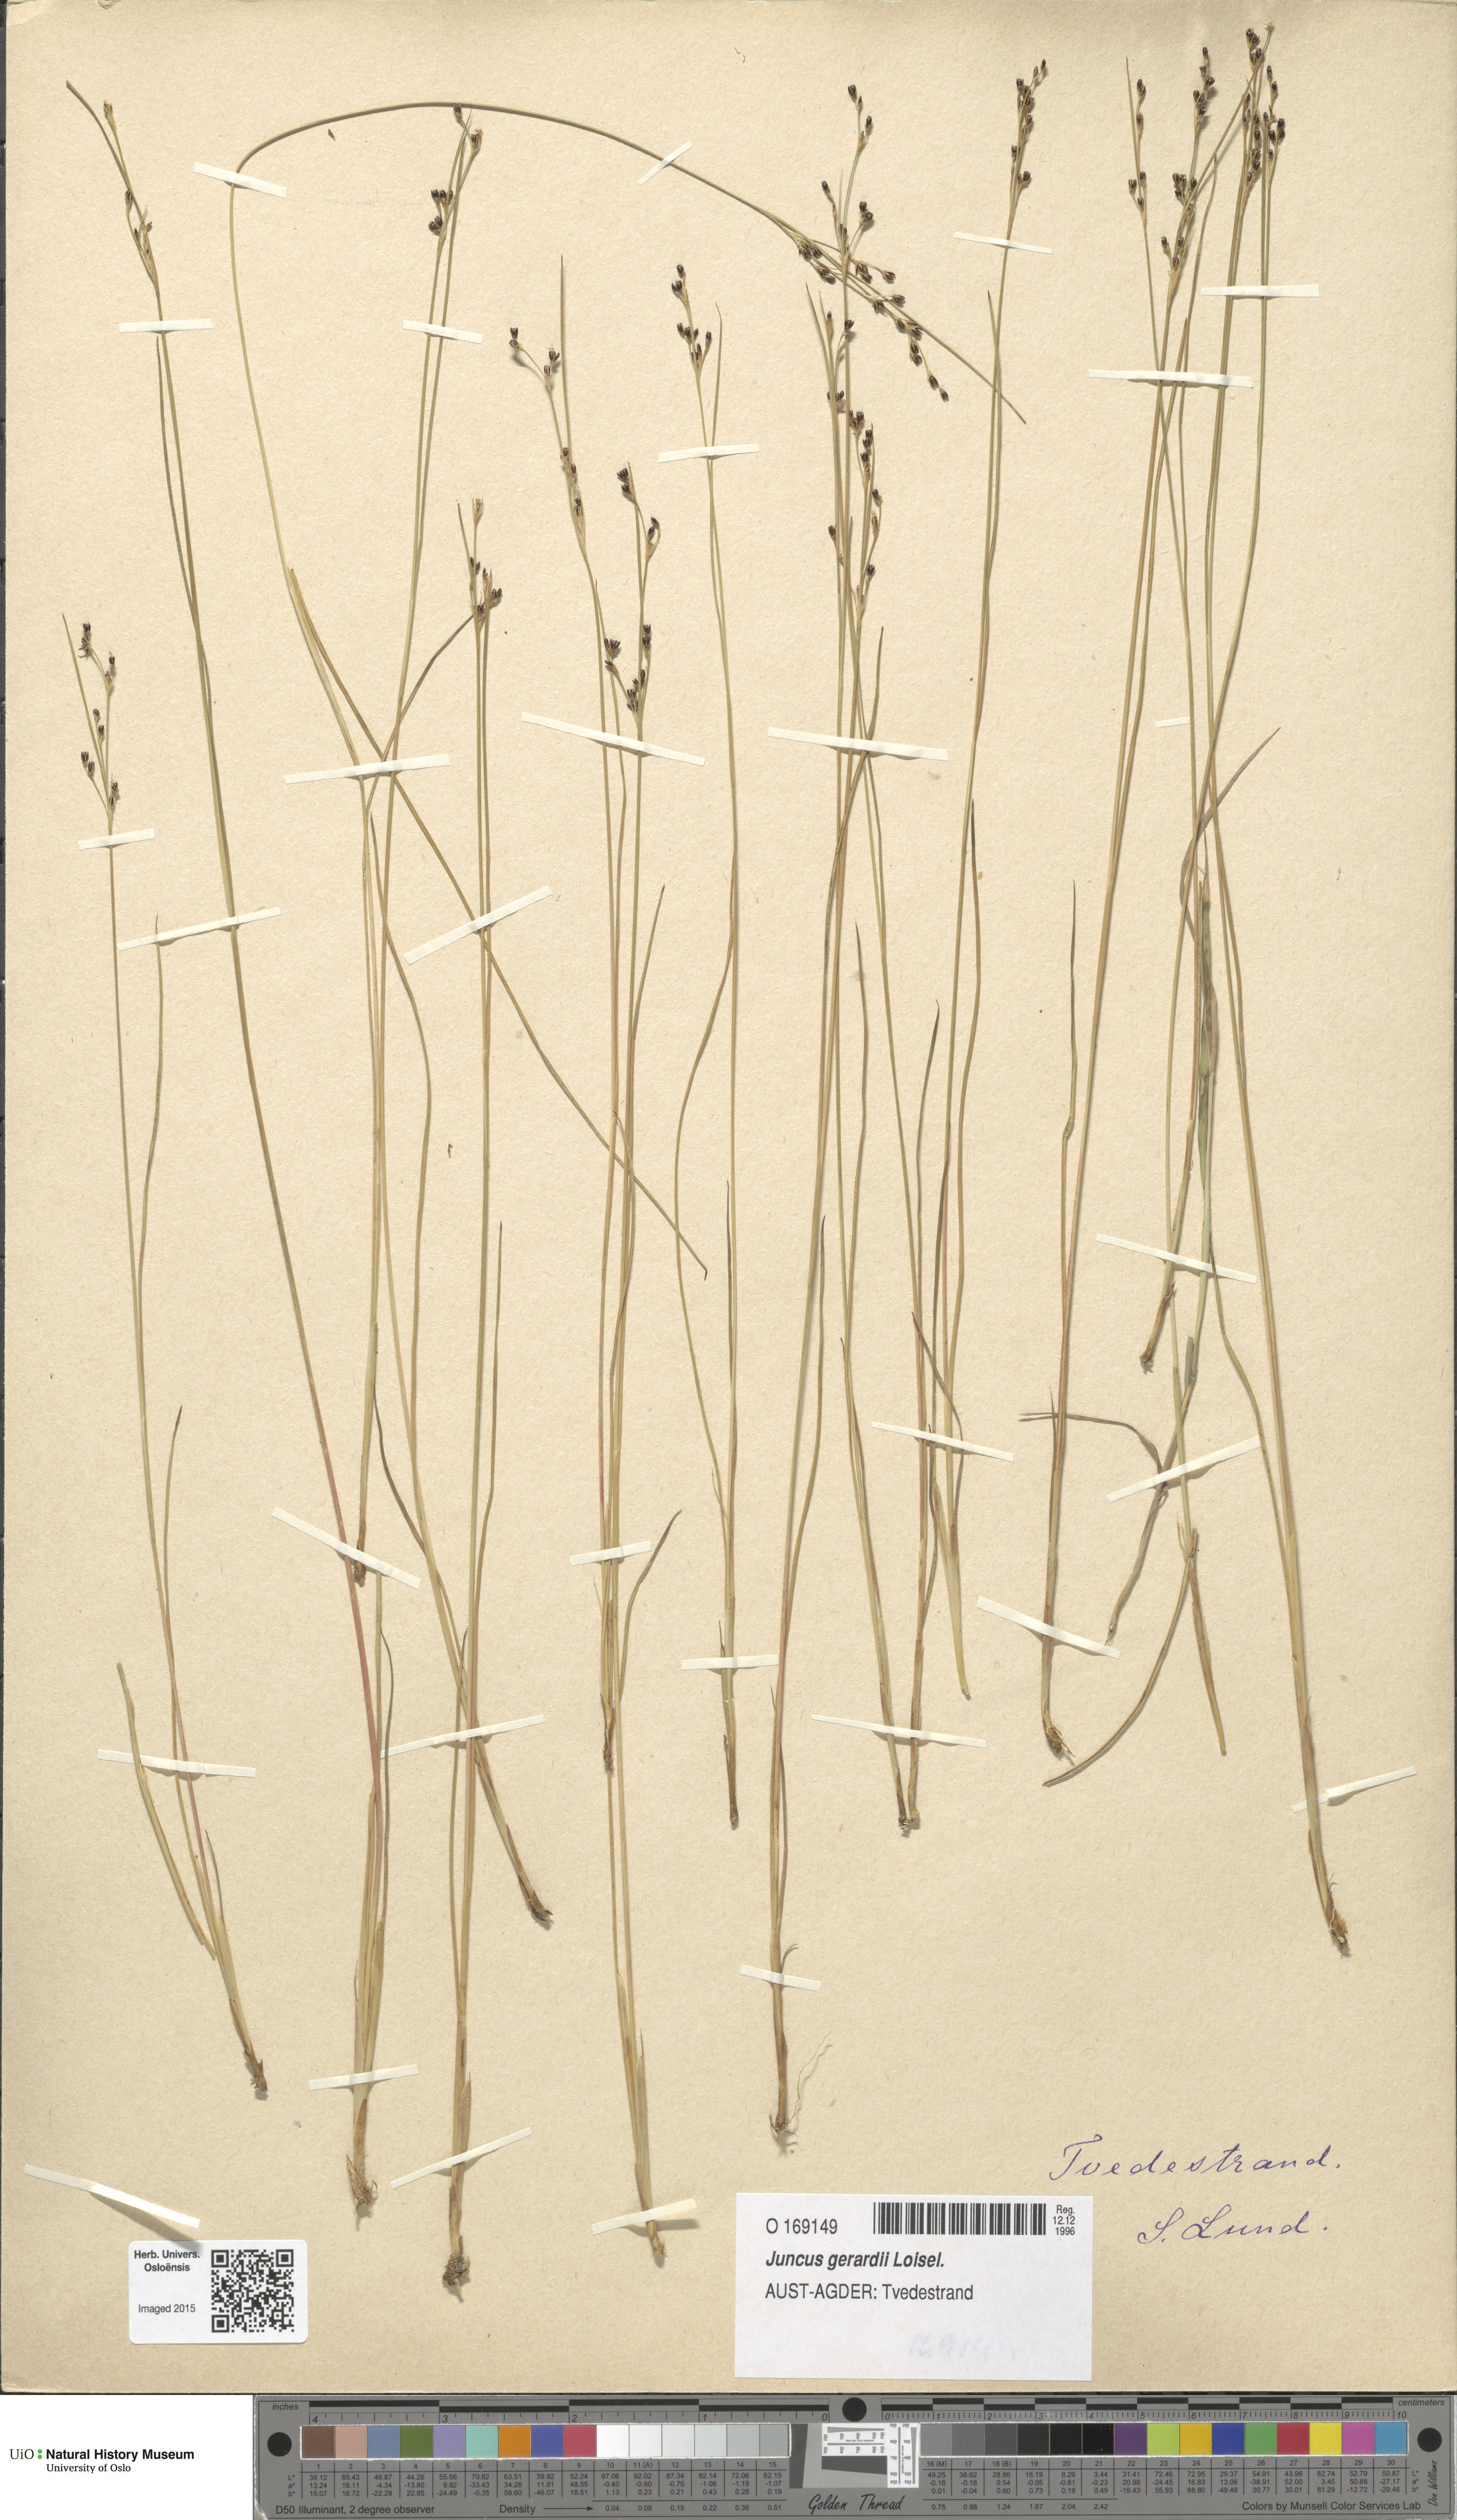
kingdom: Plantae
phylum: Tracheophyta
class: Liliopsida
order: Poales
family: Juncaceae
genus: Juncus
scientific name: Juncus gerardi
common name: Saltmarsh rush
